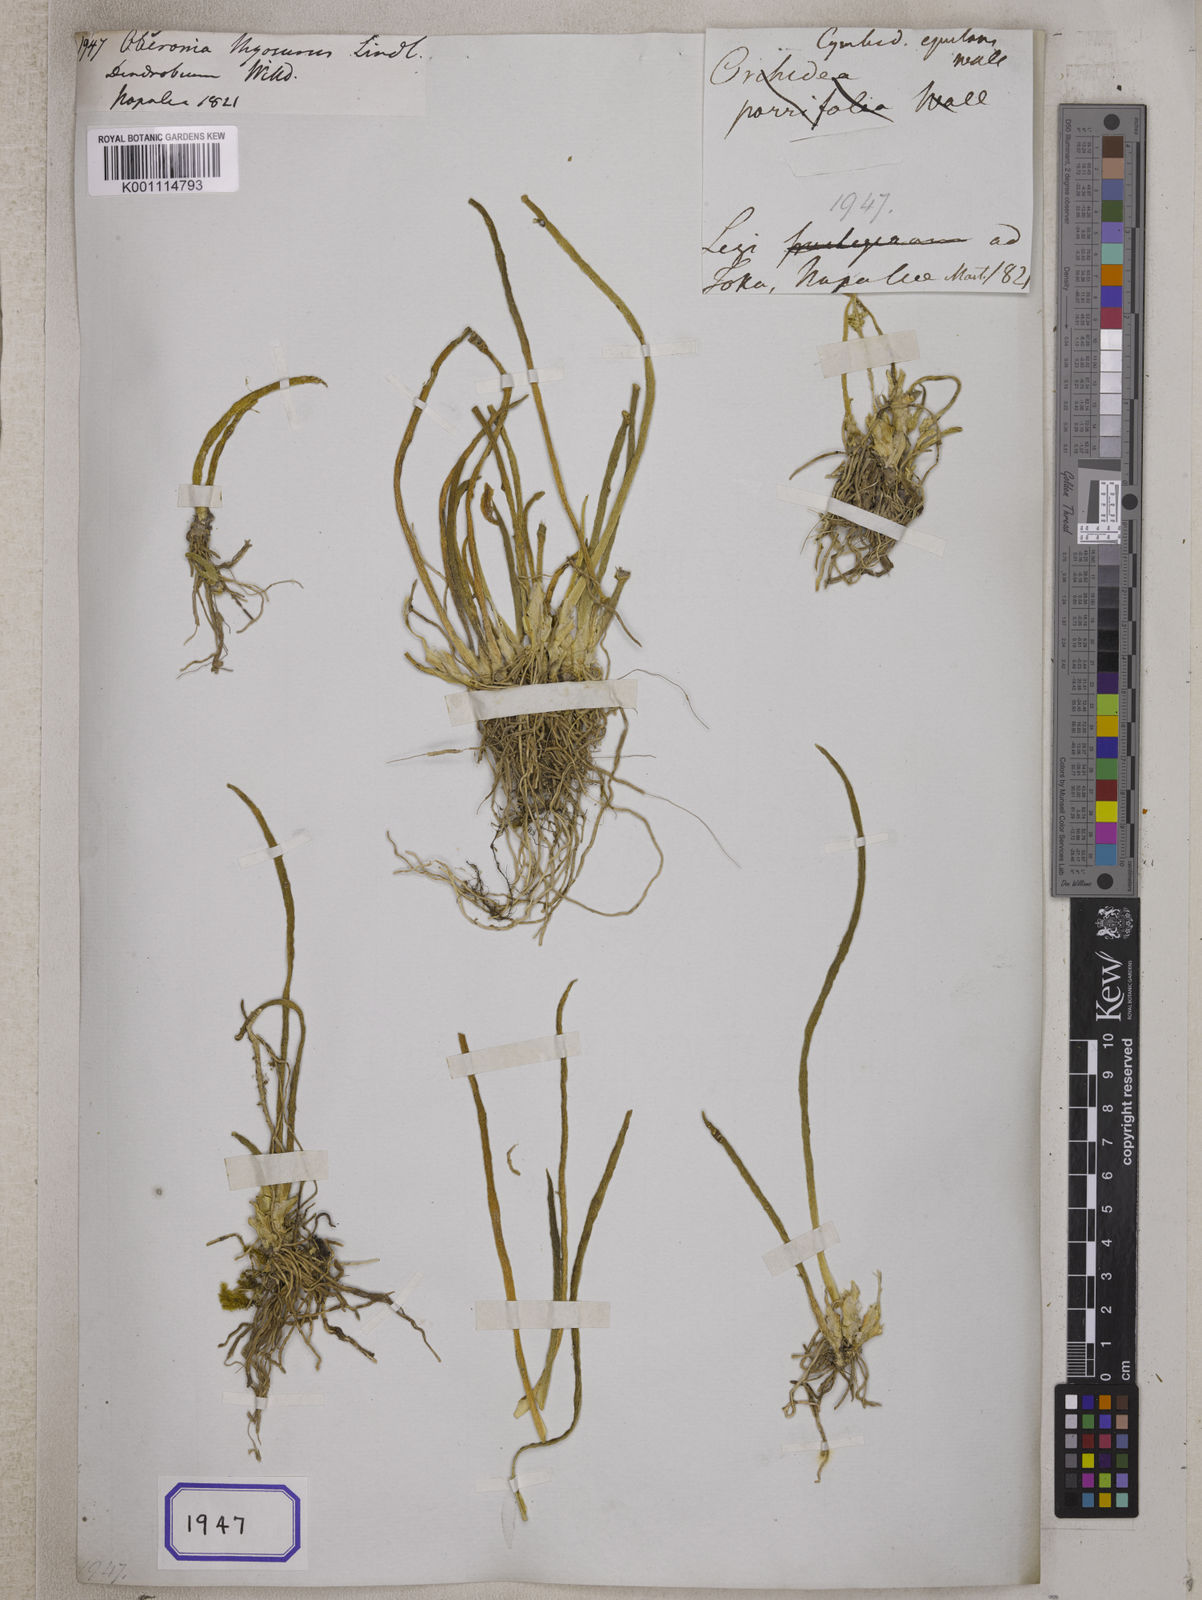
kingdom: Plantae
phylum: Tracheophyta
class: Liliopsida
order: Asparagales
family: Orchidaceae
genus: Phreatia
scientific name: Phreatia inversa
